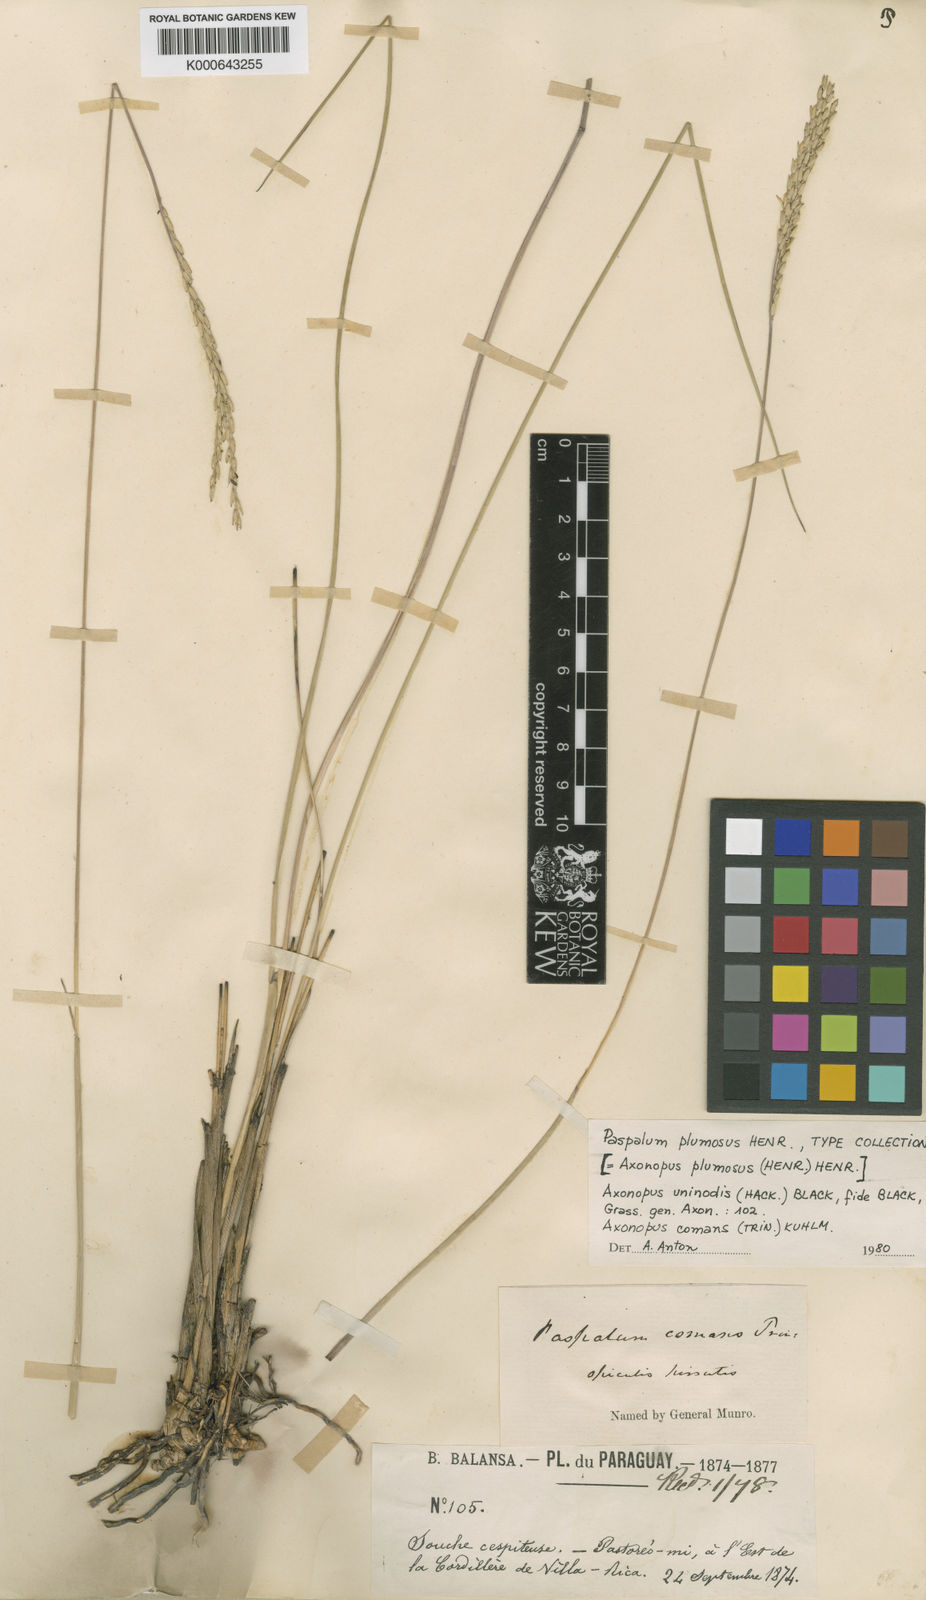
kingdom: Plantae
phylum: Tracheophyta
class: Liliopsida
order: Poales
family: Poaceae
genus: Axonopus
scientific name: Axonopus
